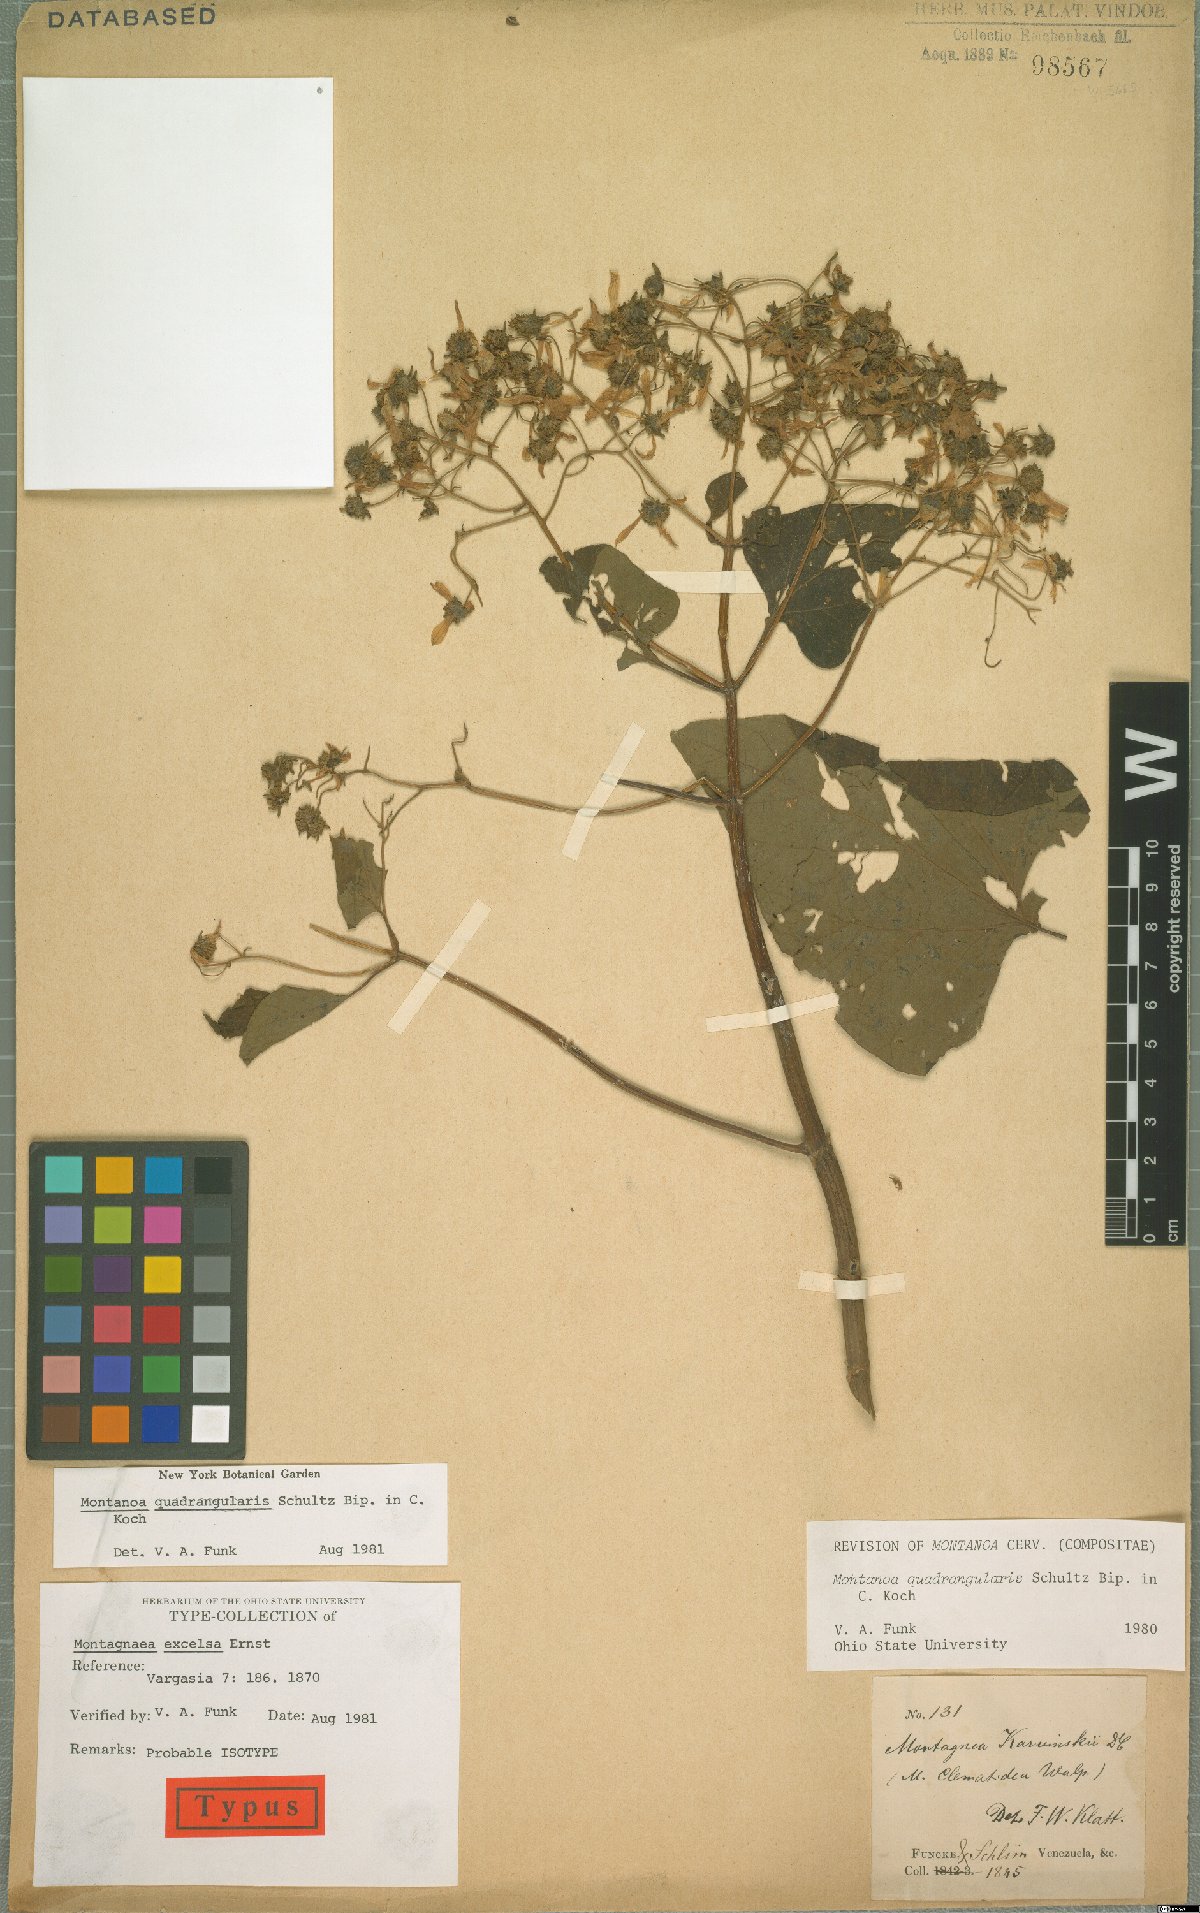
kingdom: Plantae
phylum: Tracheophyta
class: Magnoliopsida
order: Asterales
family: Asteraceae
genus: Montanoa
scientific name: Montanoa quadrangularis
